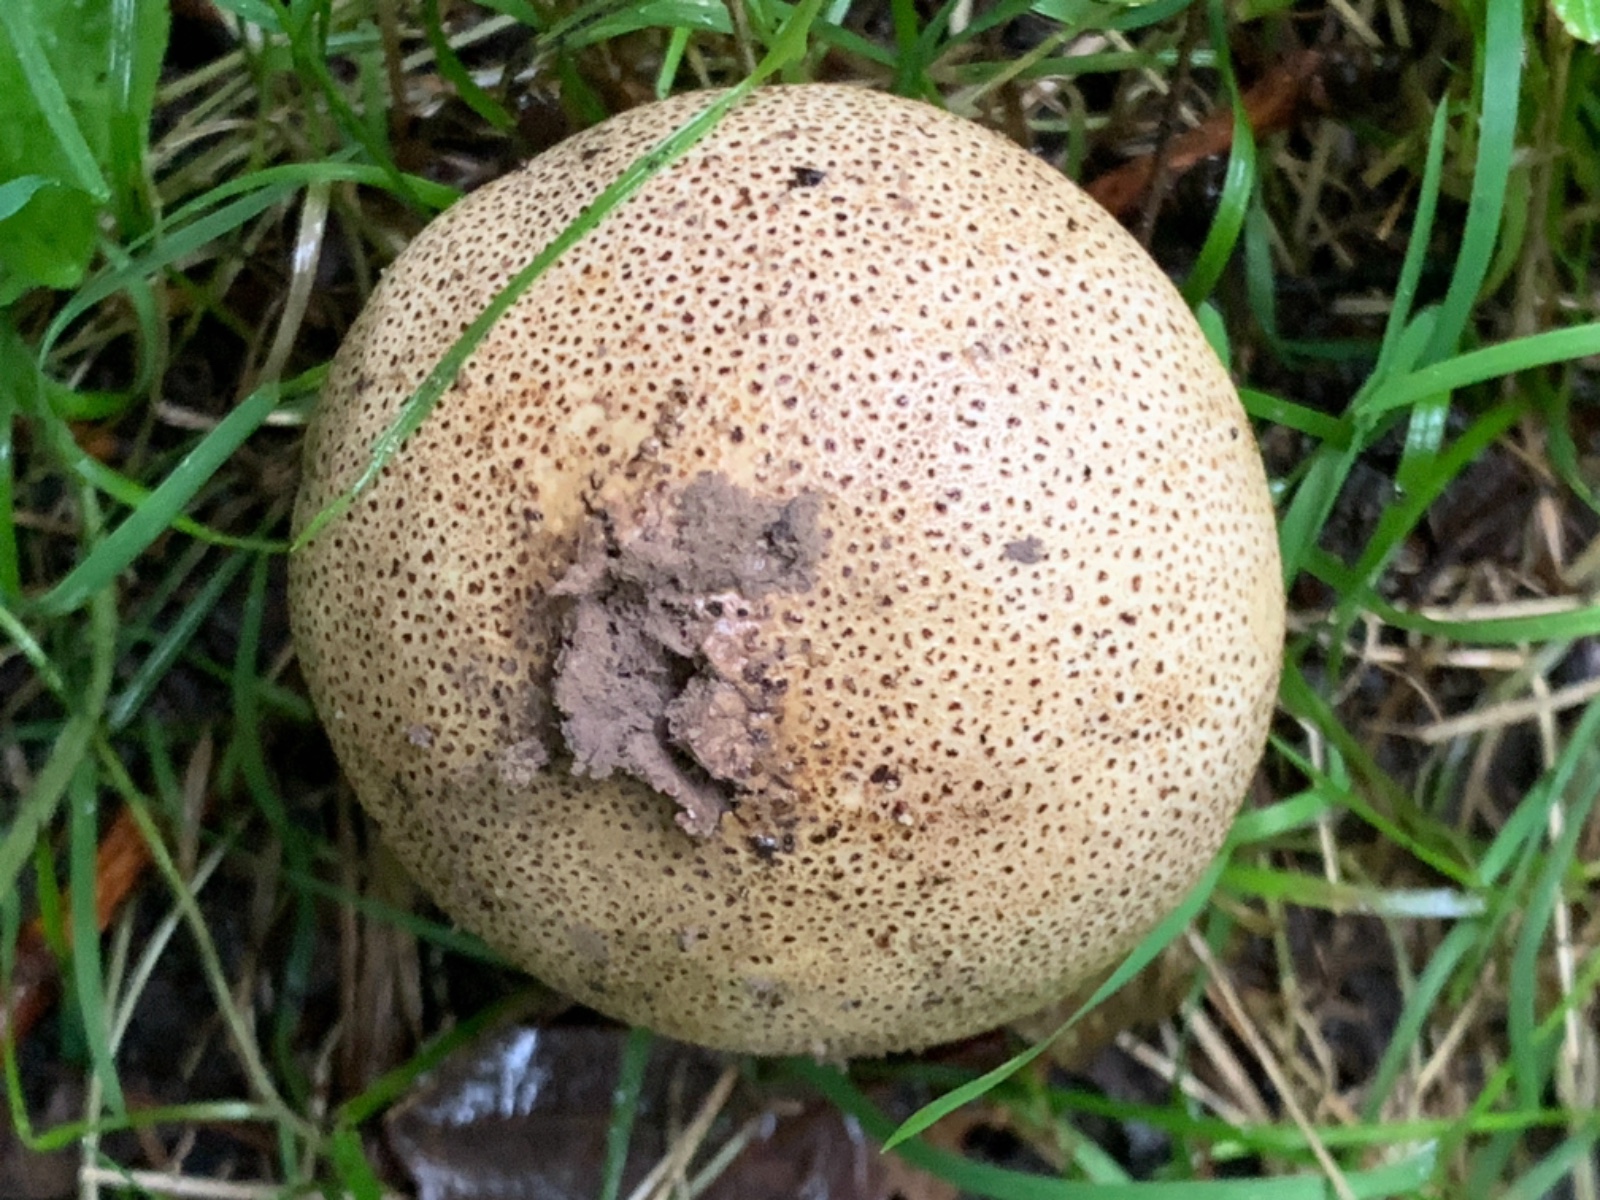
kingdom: Fungi
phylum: Basidiomycota
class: Agaricomycetes
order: Boletales
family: Sclerodermataceae
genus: Scleroderma
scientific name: Scleroderma verrucosum
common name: stilket bruskbold
